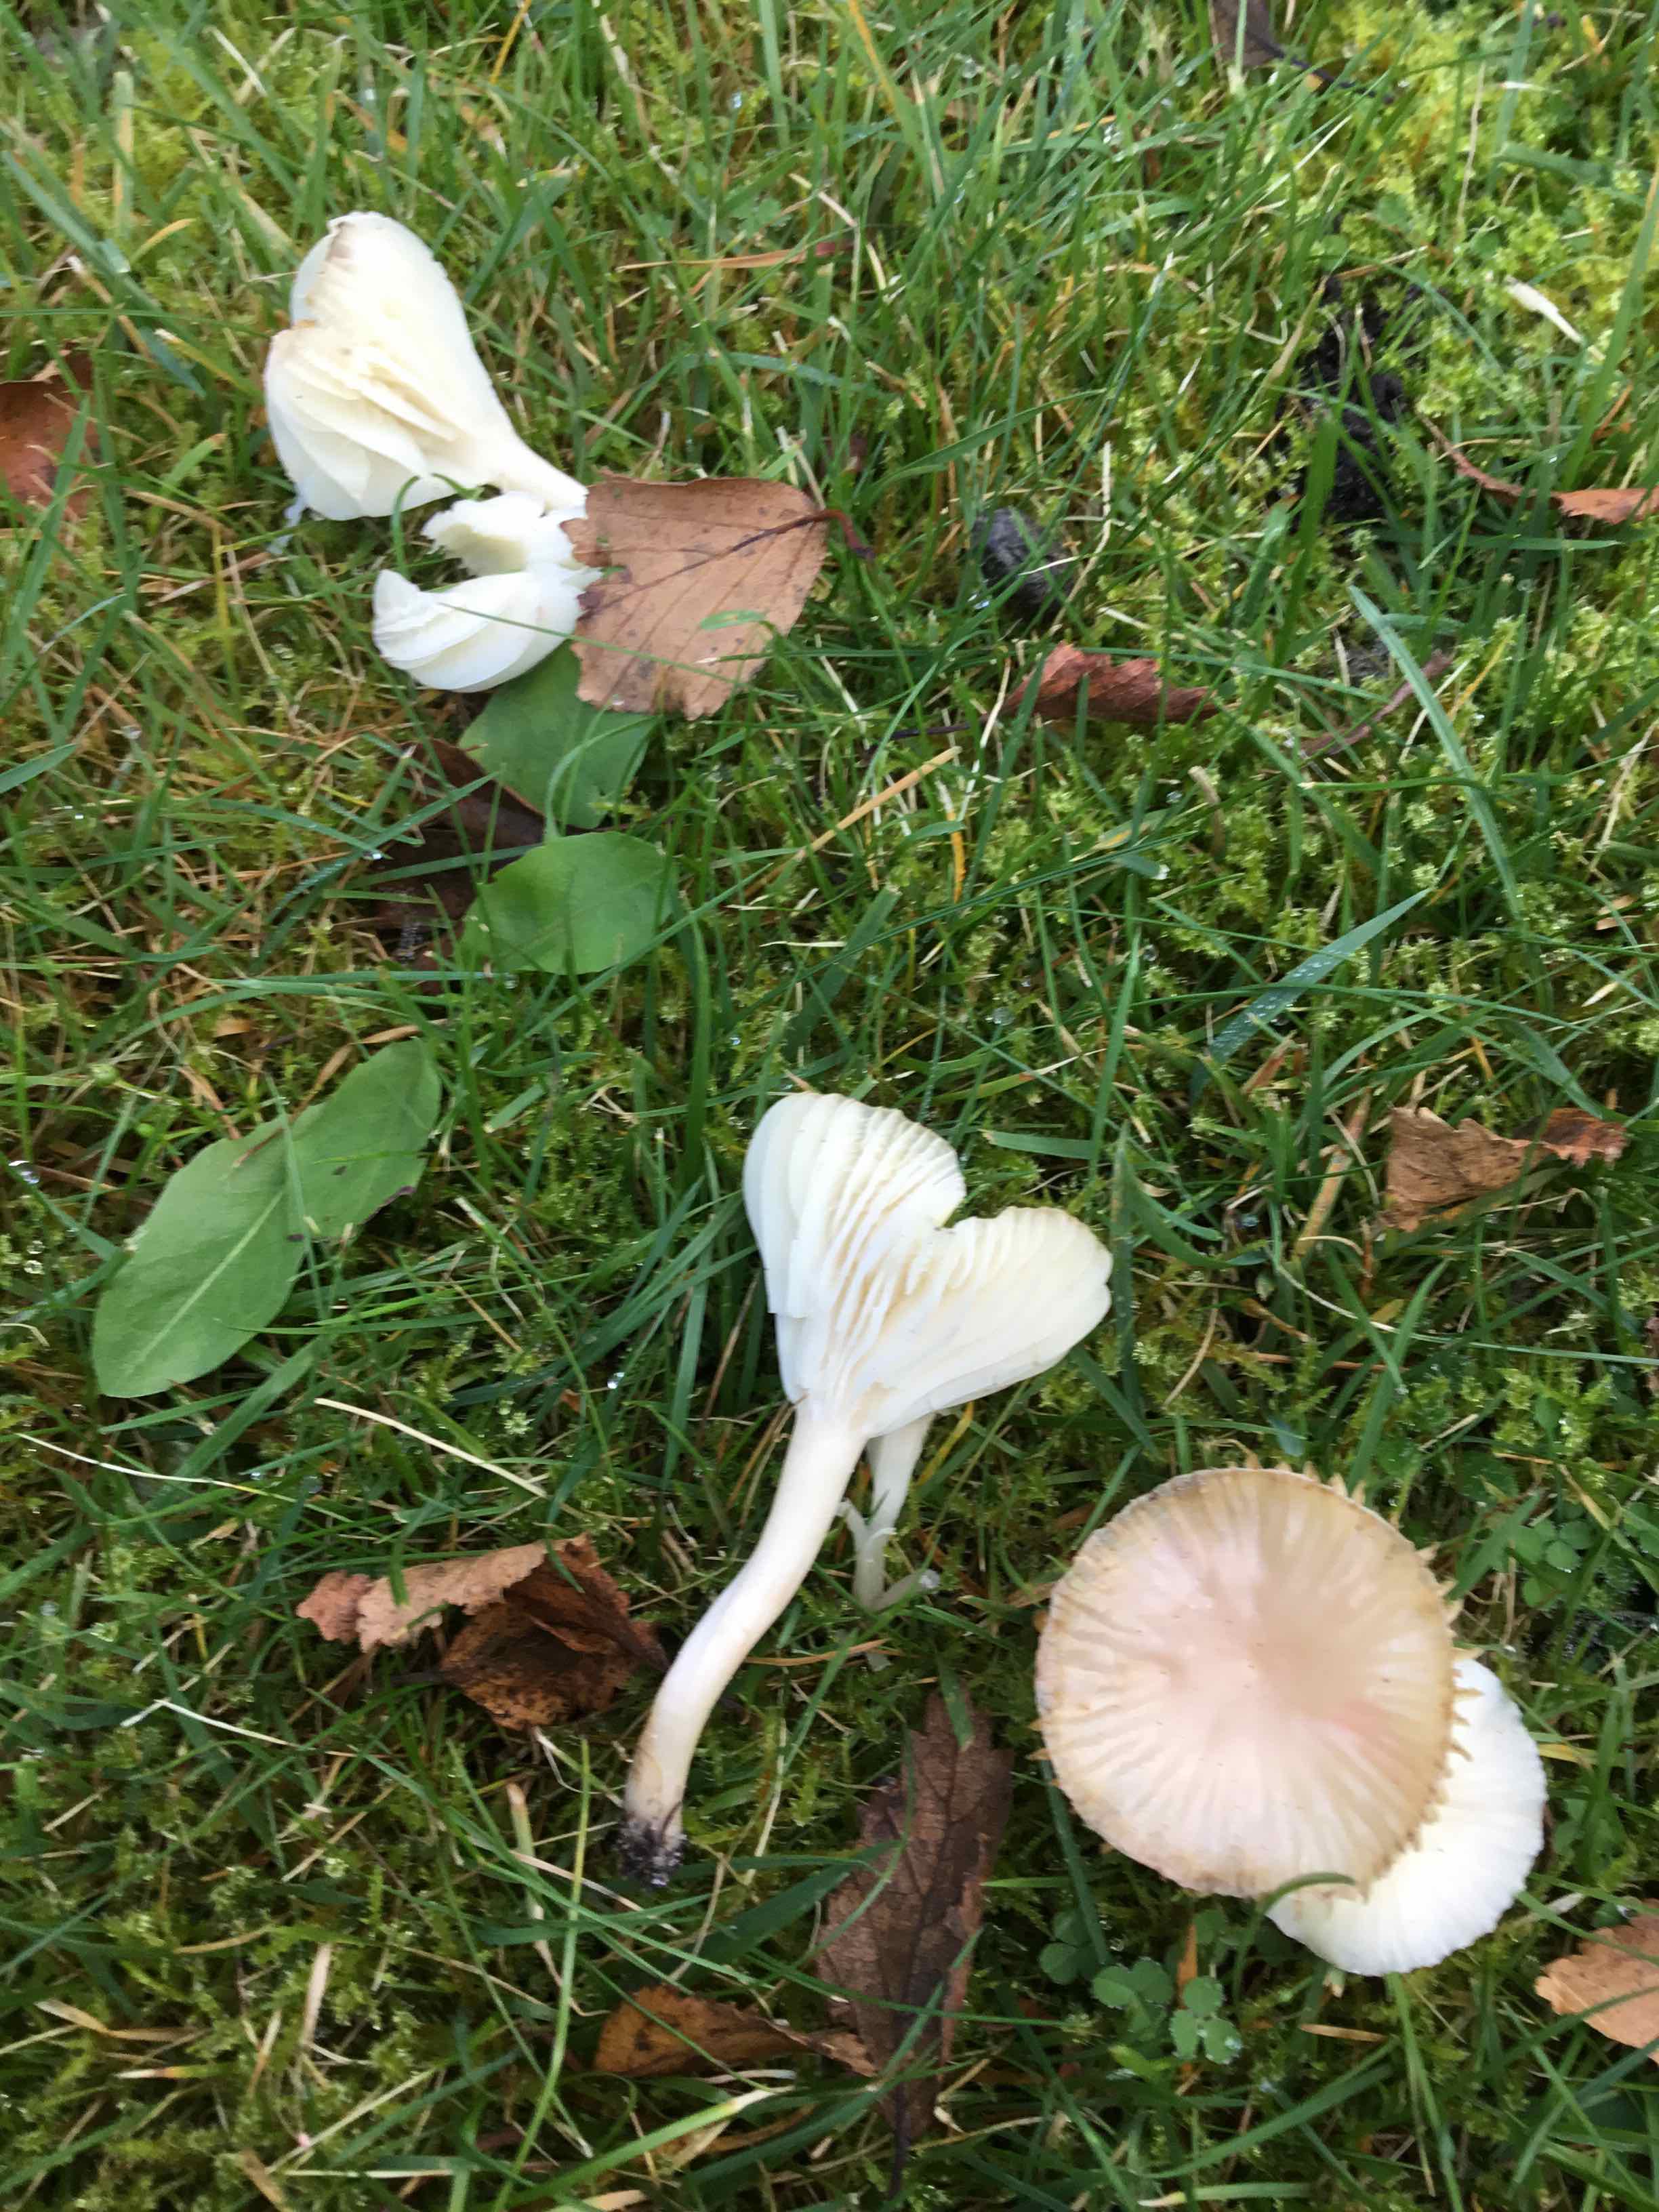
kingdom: Fungi
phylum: Basidiomycota
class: Agaricomycetes
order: Agaricales
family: Hygrophoraceae
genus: Cuphophyllus
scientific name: Cuphophyllus virgineus
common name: snehvid vokshat
